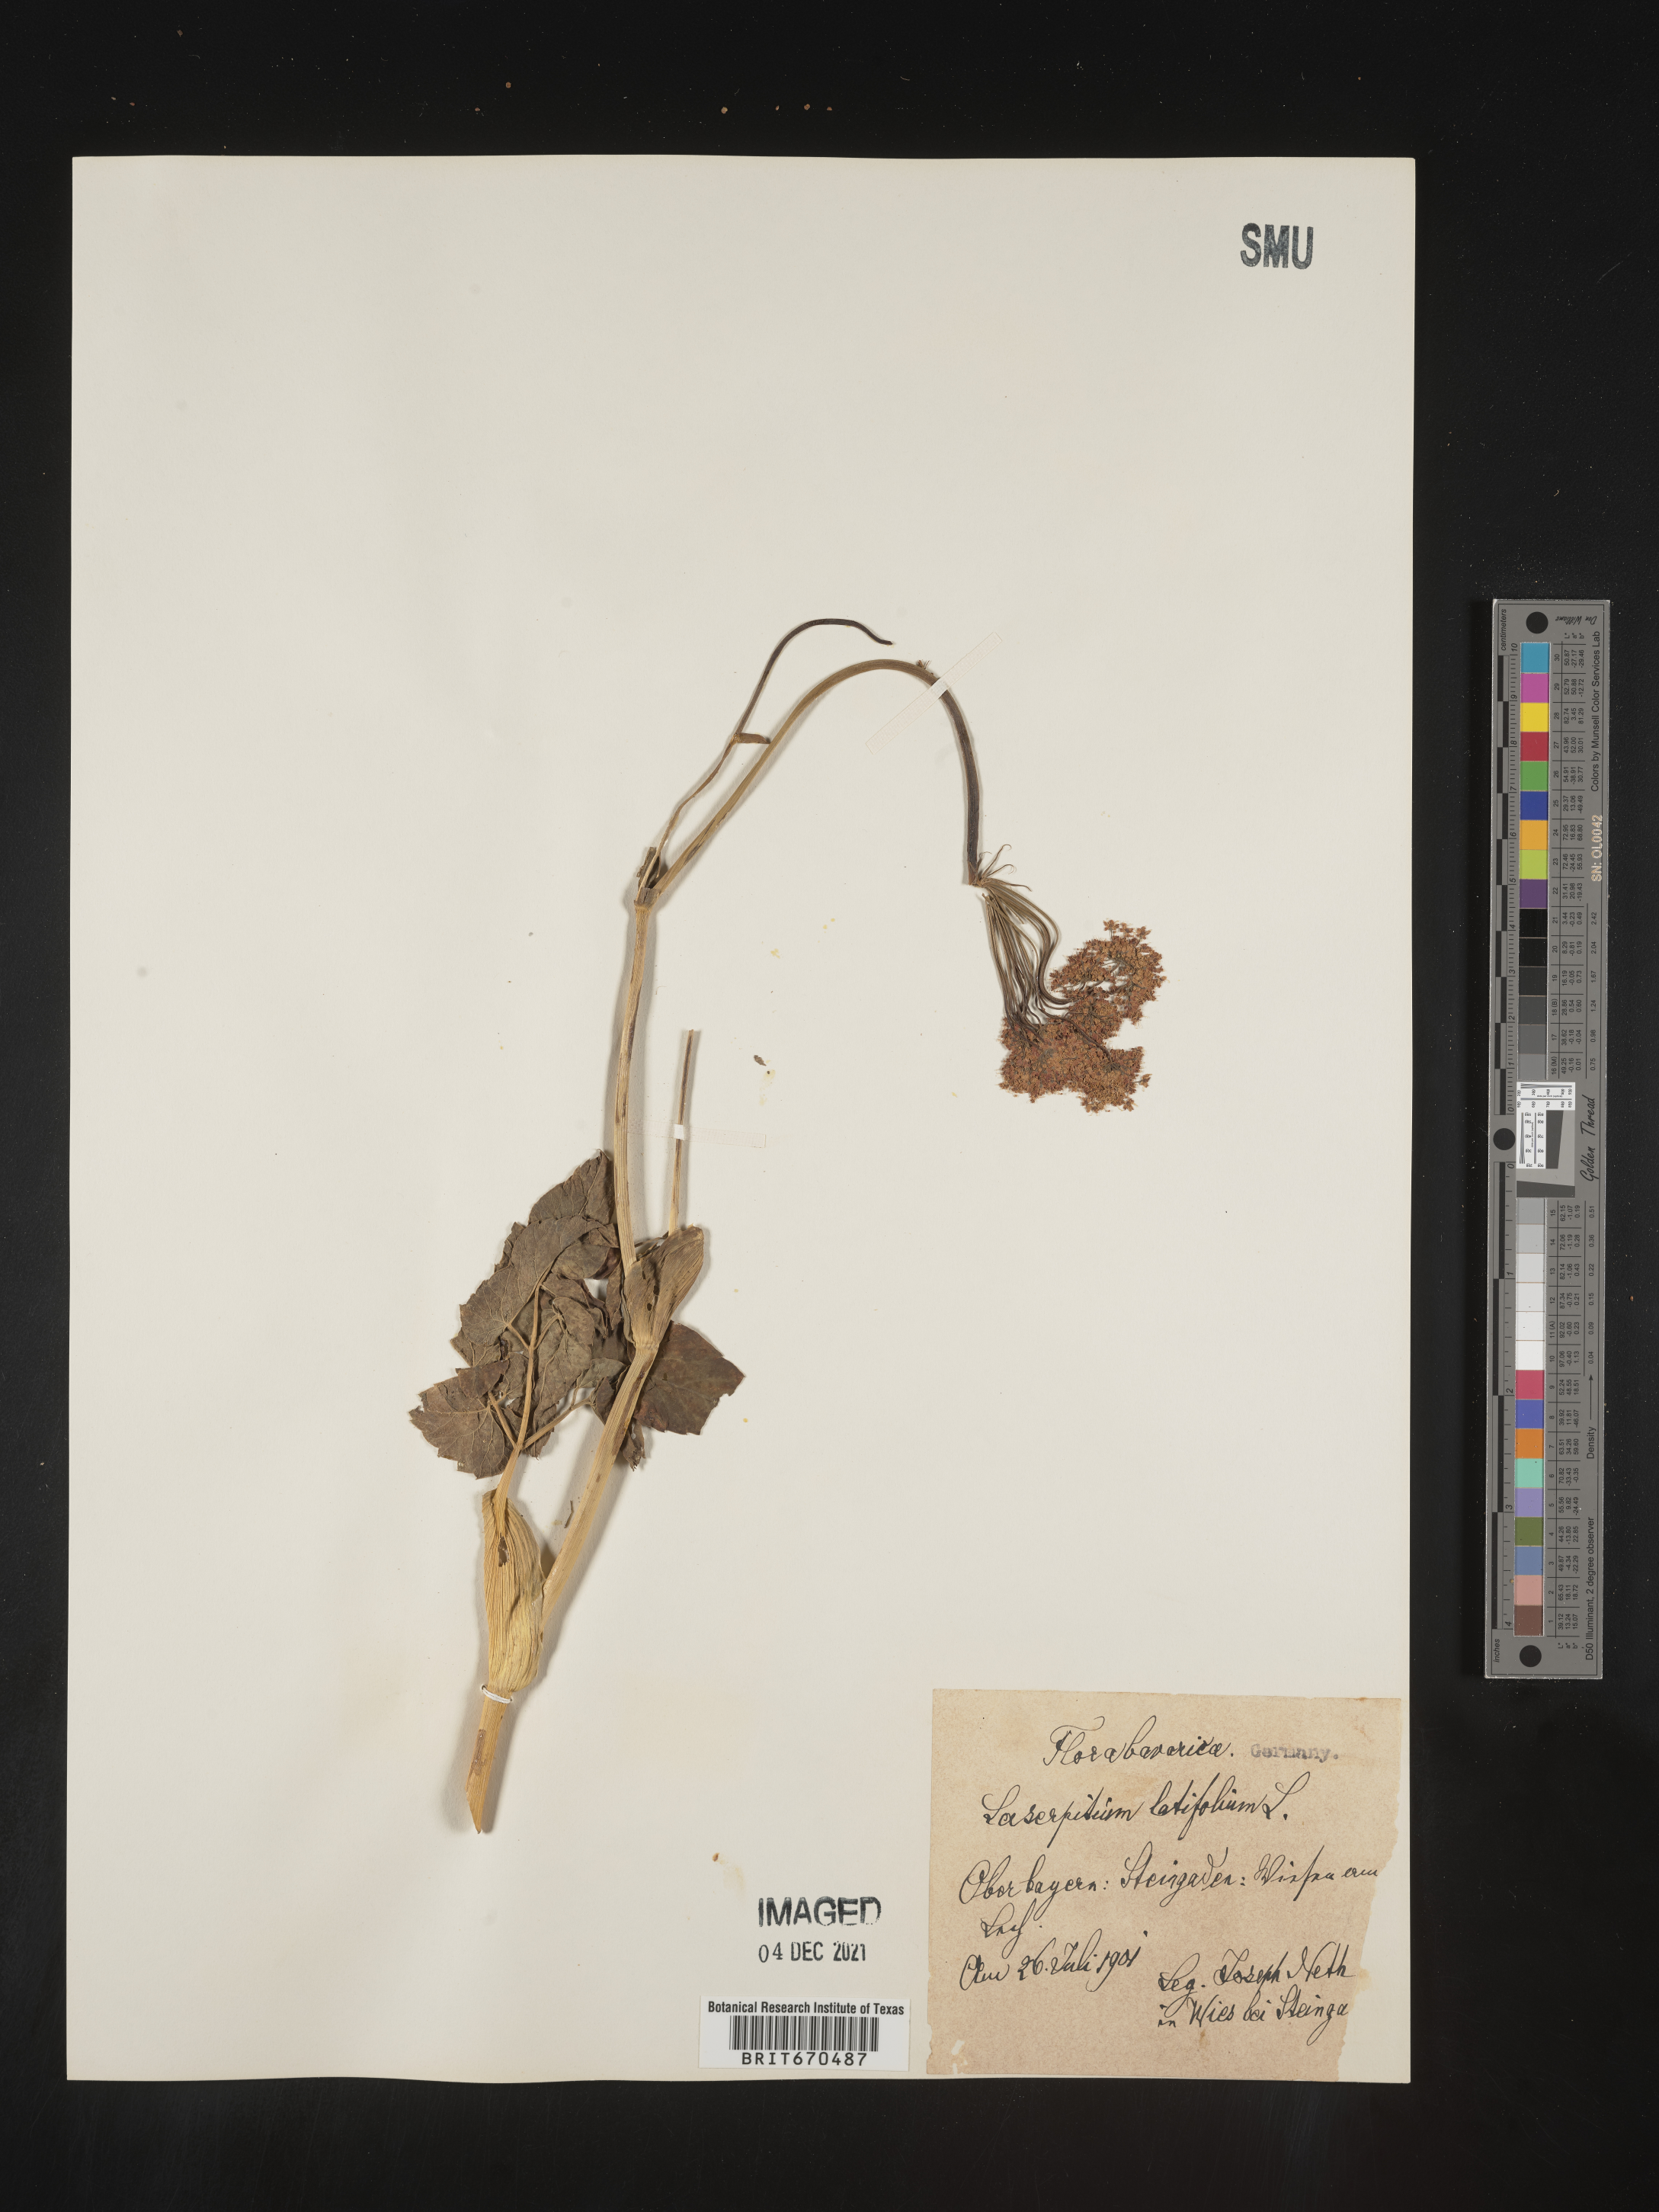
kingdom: Plantae
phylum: Tracheophyta
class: Magnoliopsida
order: Apiales
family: Apiaceae
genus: Laserpitium
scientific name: Laserpitium
